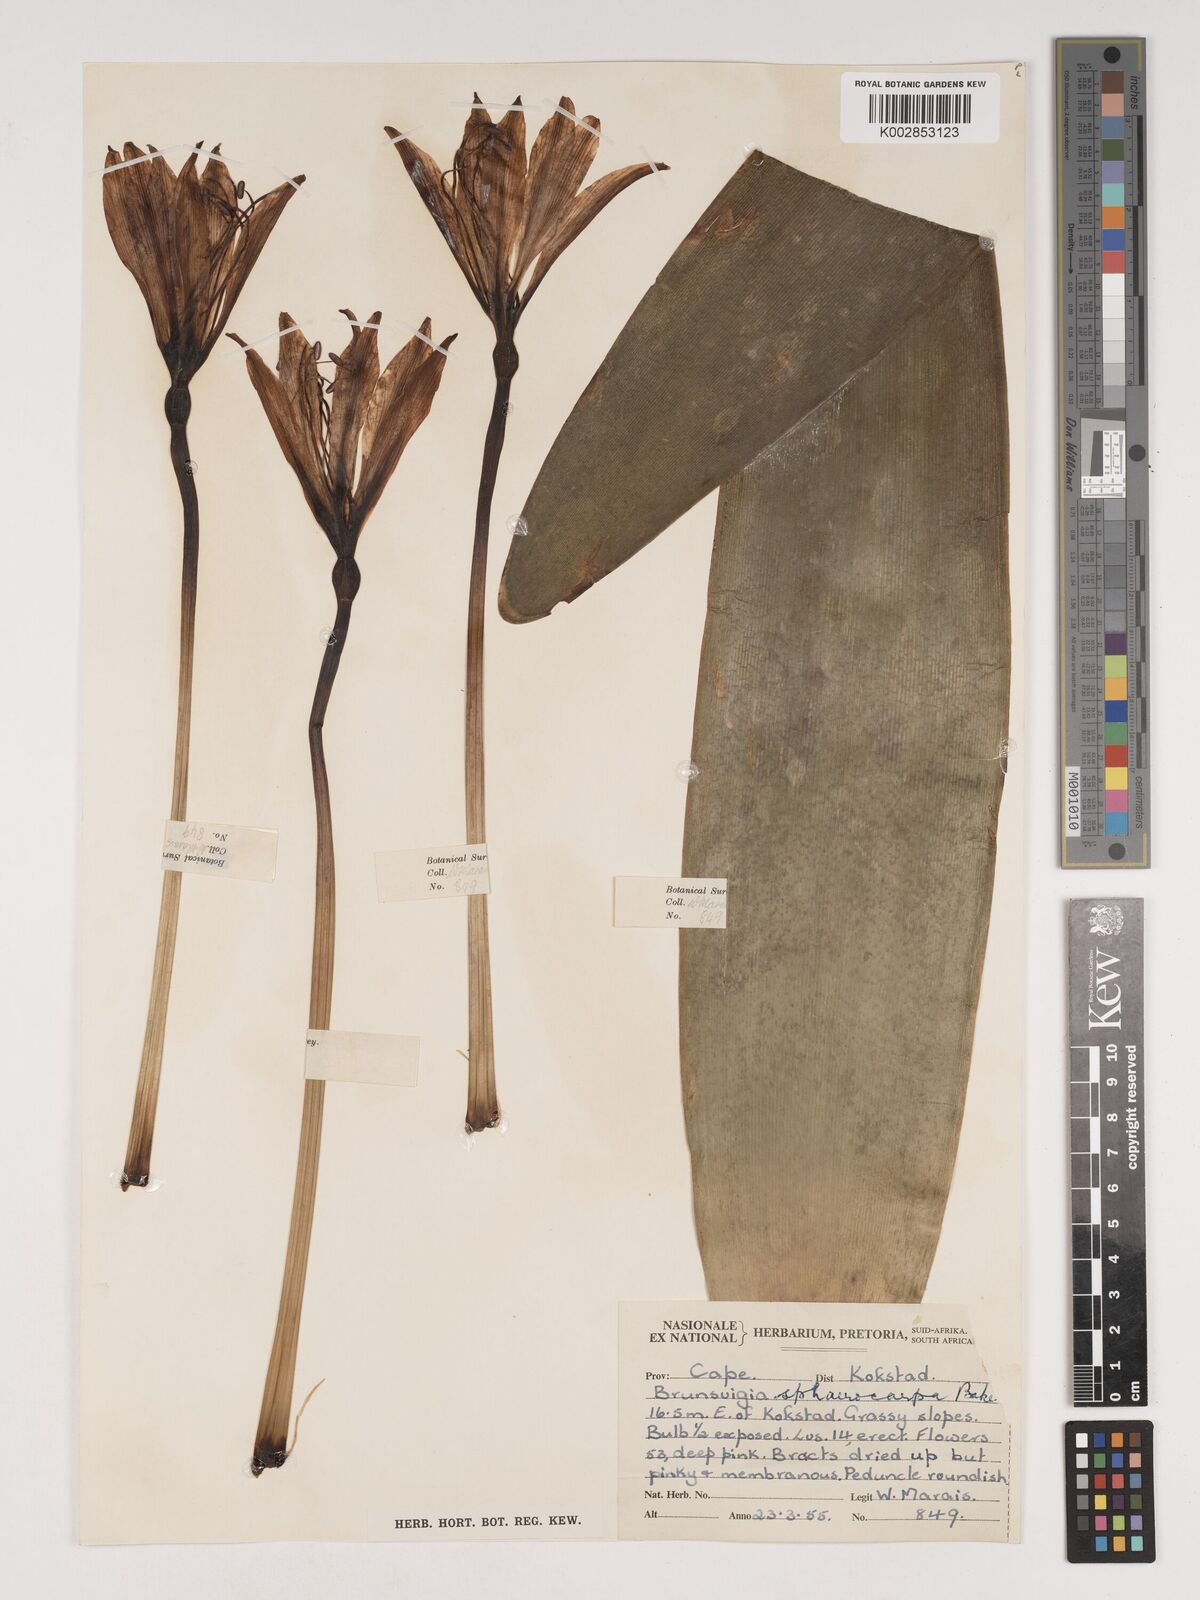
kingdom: Plantae
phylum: Tracheophyta
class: Liliopsida
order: Asparagales
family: Amaryllidaceae
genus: Brunsvigia
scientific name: Brunsvigia grandiflora
